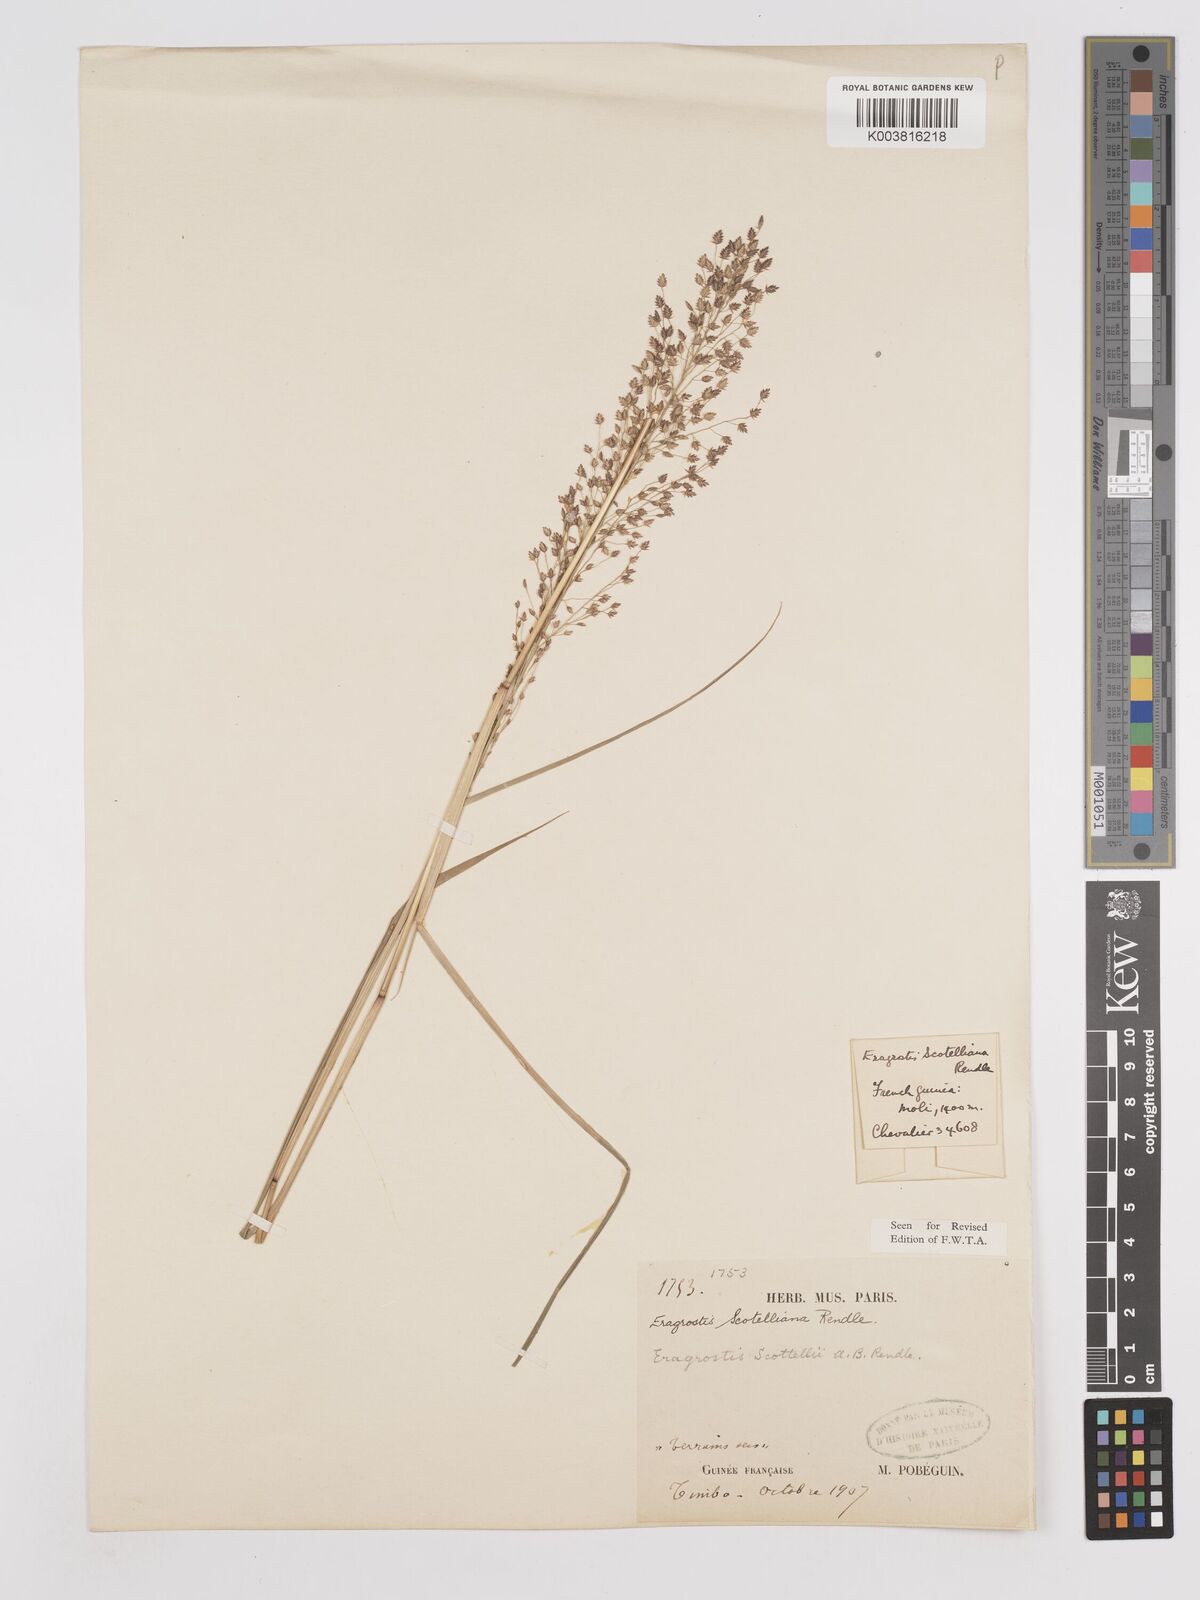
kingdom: Plantae
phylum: Tracheophyta
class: Liliopsida
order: Poales
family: Poaceae
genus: Eragrostis
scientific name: Eragrostis scotelliana
